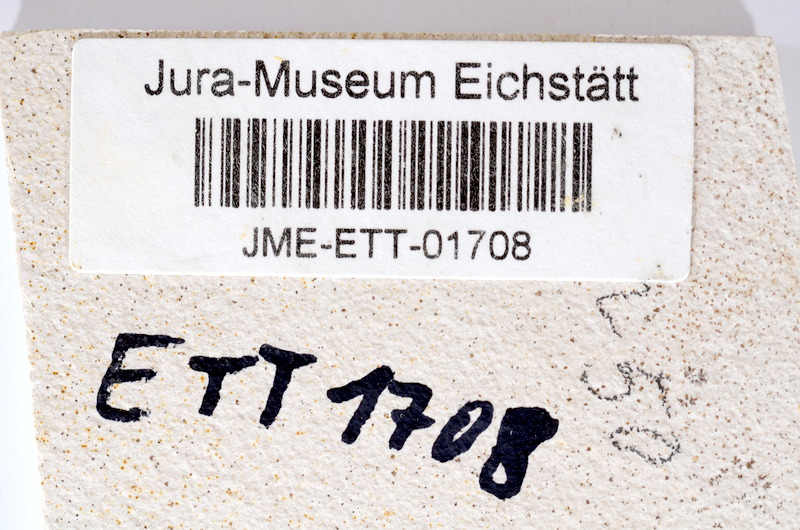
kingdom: Animalia
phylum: Chordata
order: Salmoniformes
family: Orthogonikleithridae
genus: Orthogonikleithrus
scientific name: Orthogonikleithrus hoelli
